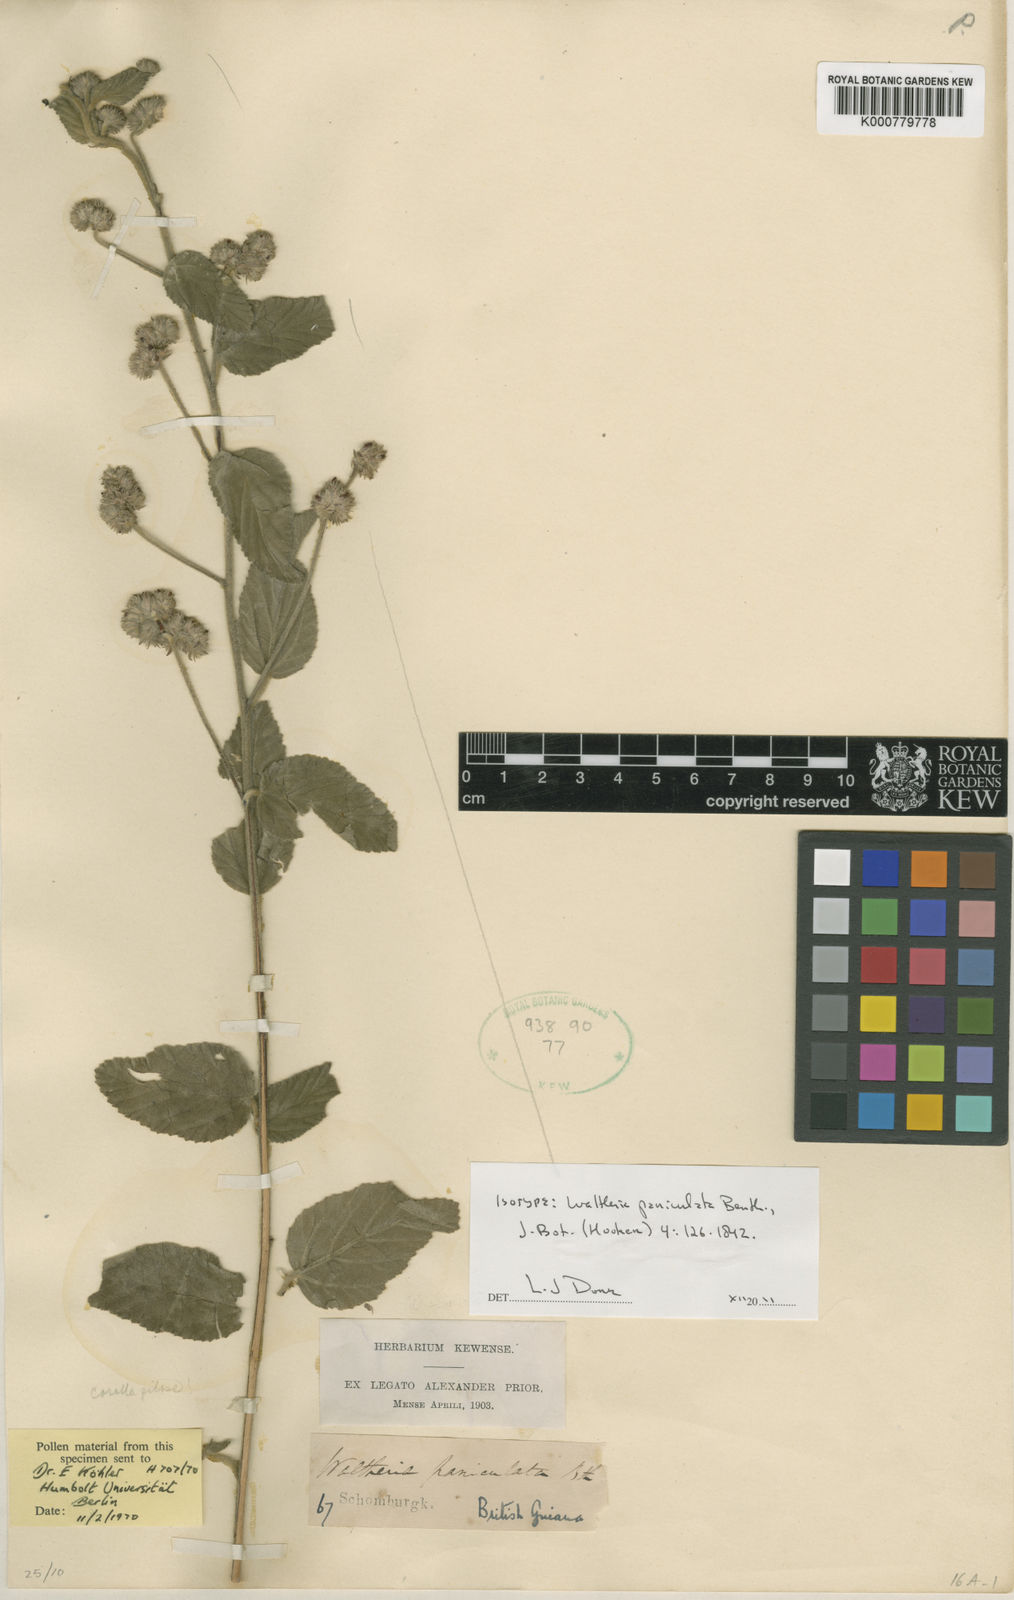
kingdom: Plantae
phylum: Tracheophyta
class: Magnoliopsida
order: Malvales
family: Malvaceae
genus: Waltheria
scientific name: Waltheria indica
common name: Leather-coat
